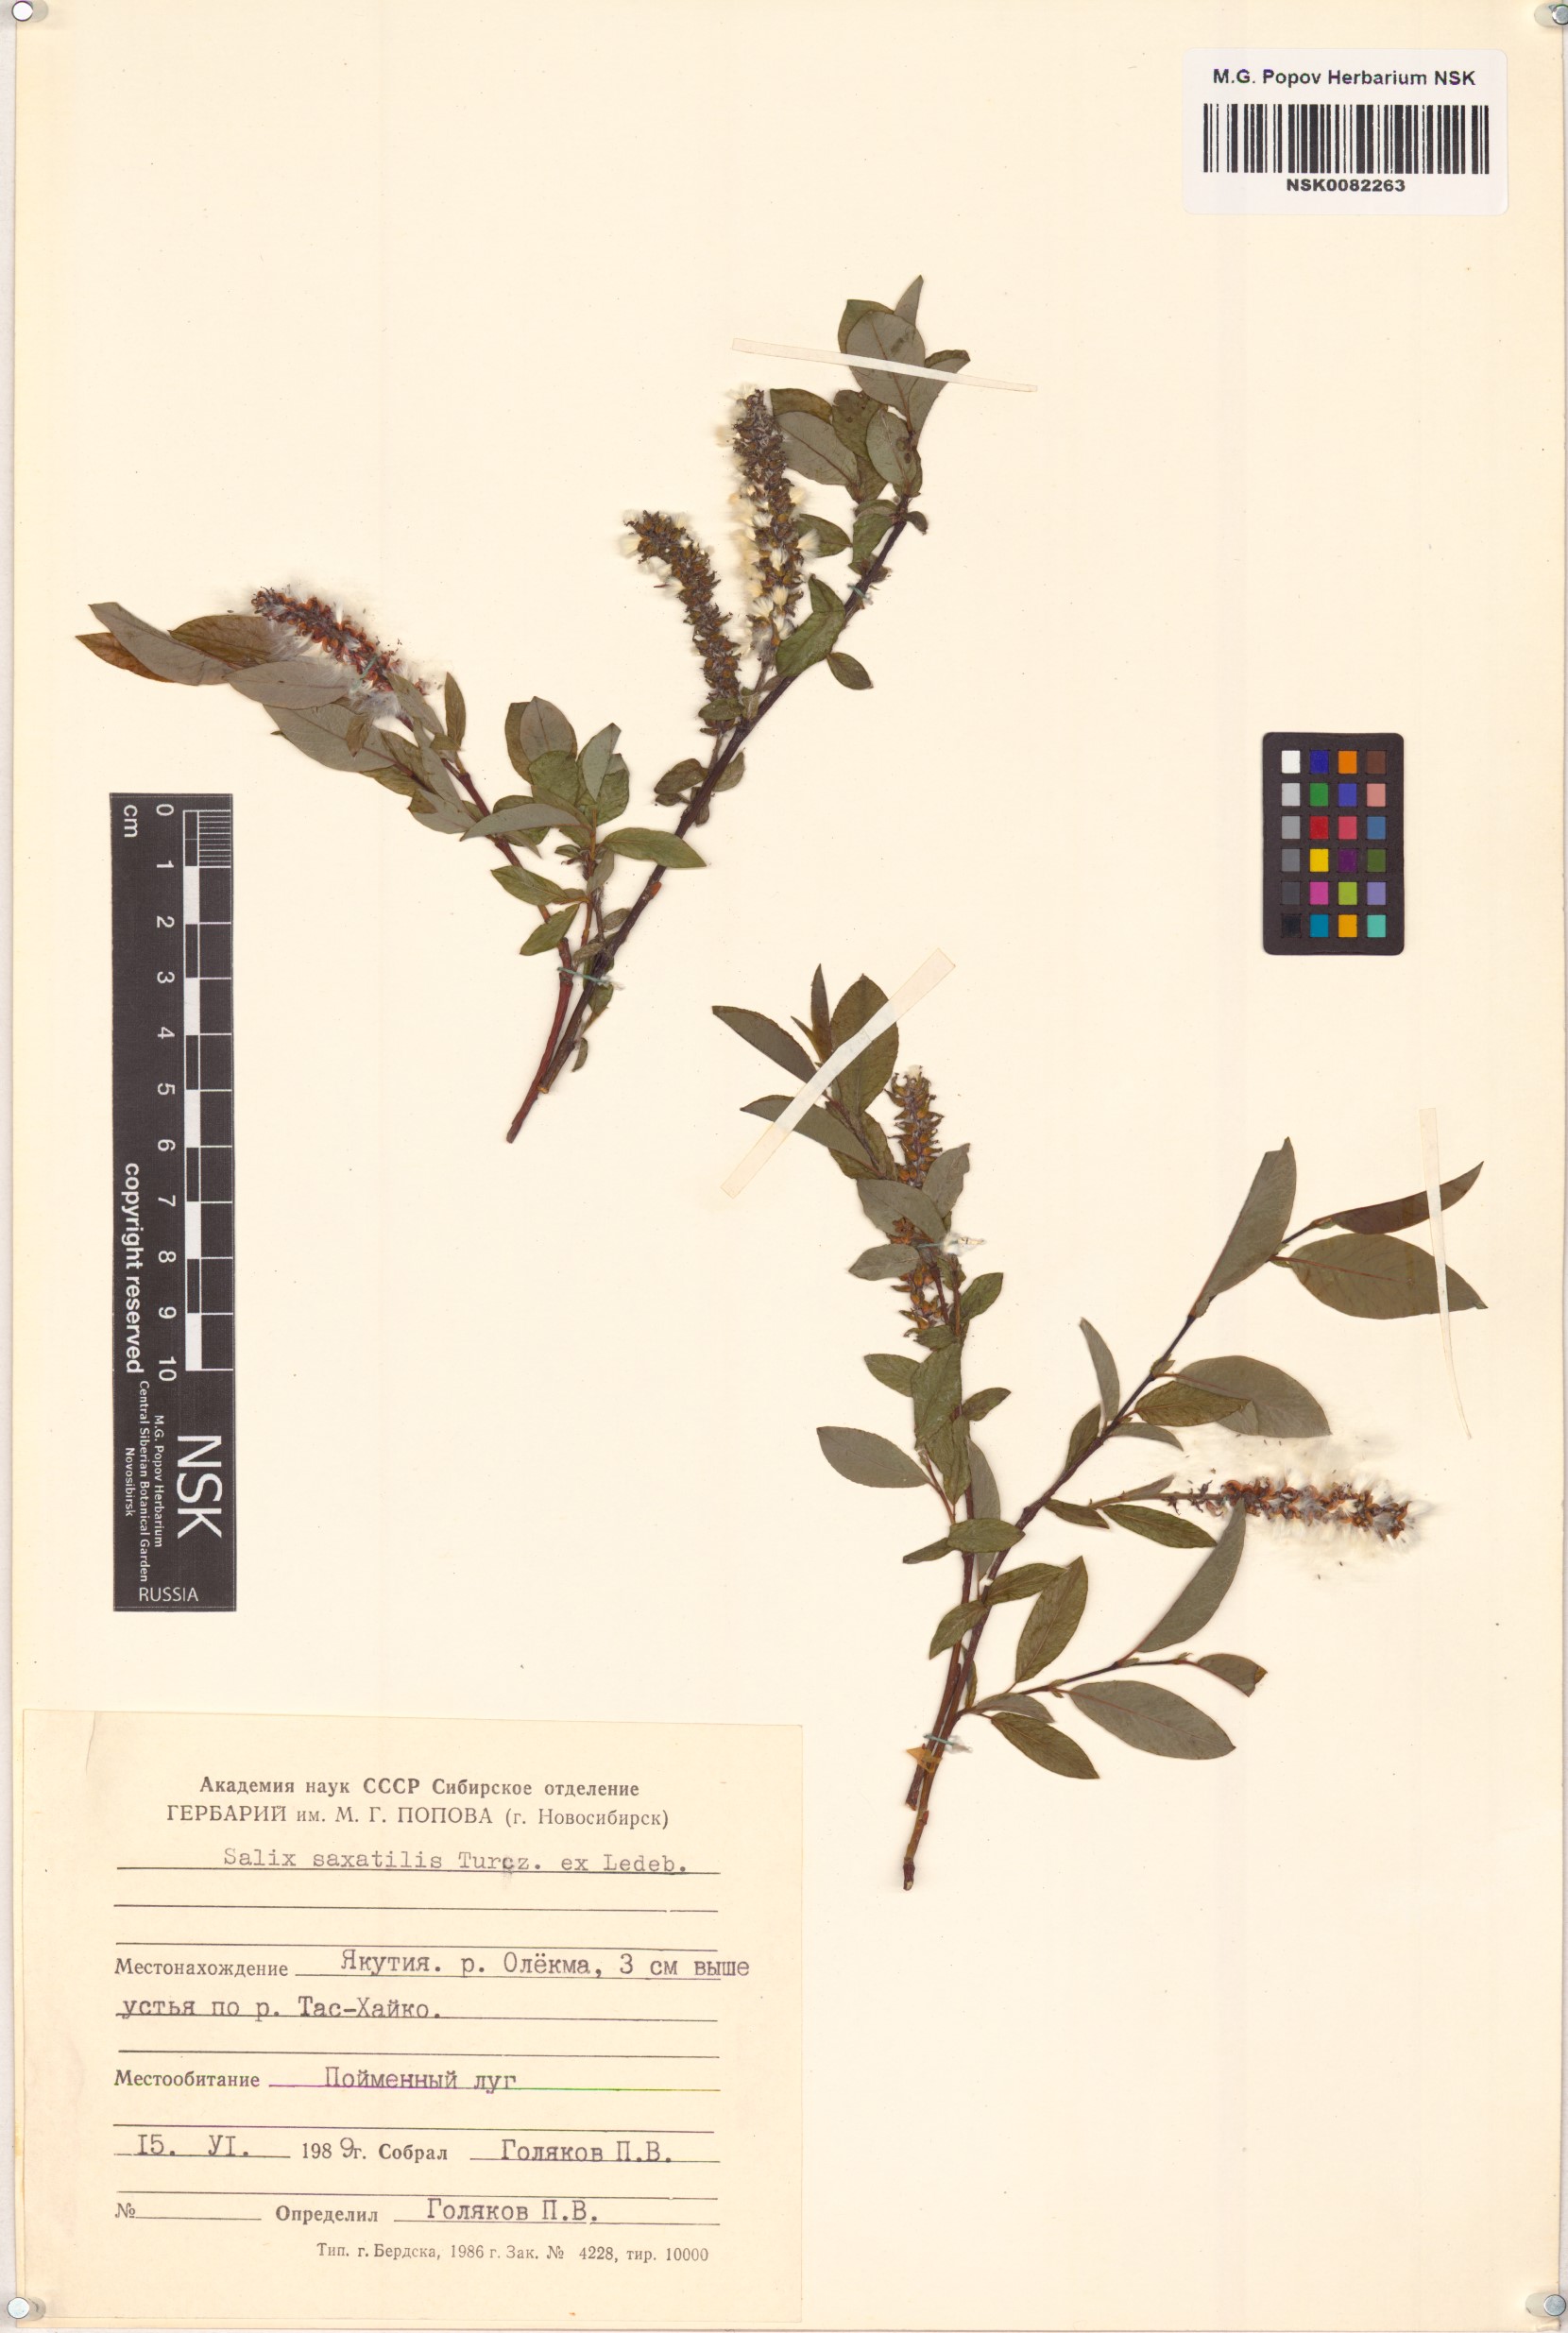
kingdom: Plantae
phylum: Tracheophyta
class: Magnoliopsida
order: Malpighiales
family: Salicaceae
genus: Salix
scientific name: Salix saxatilis
